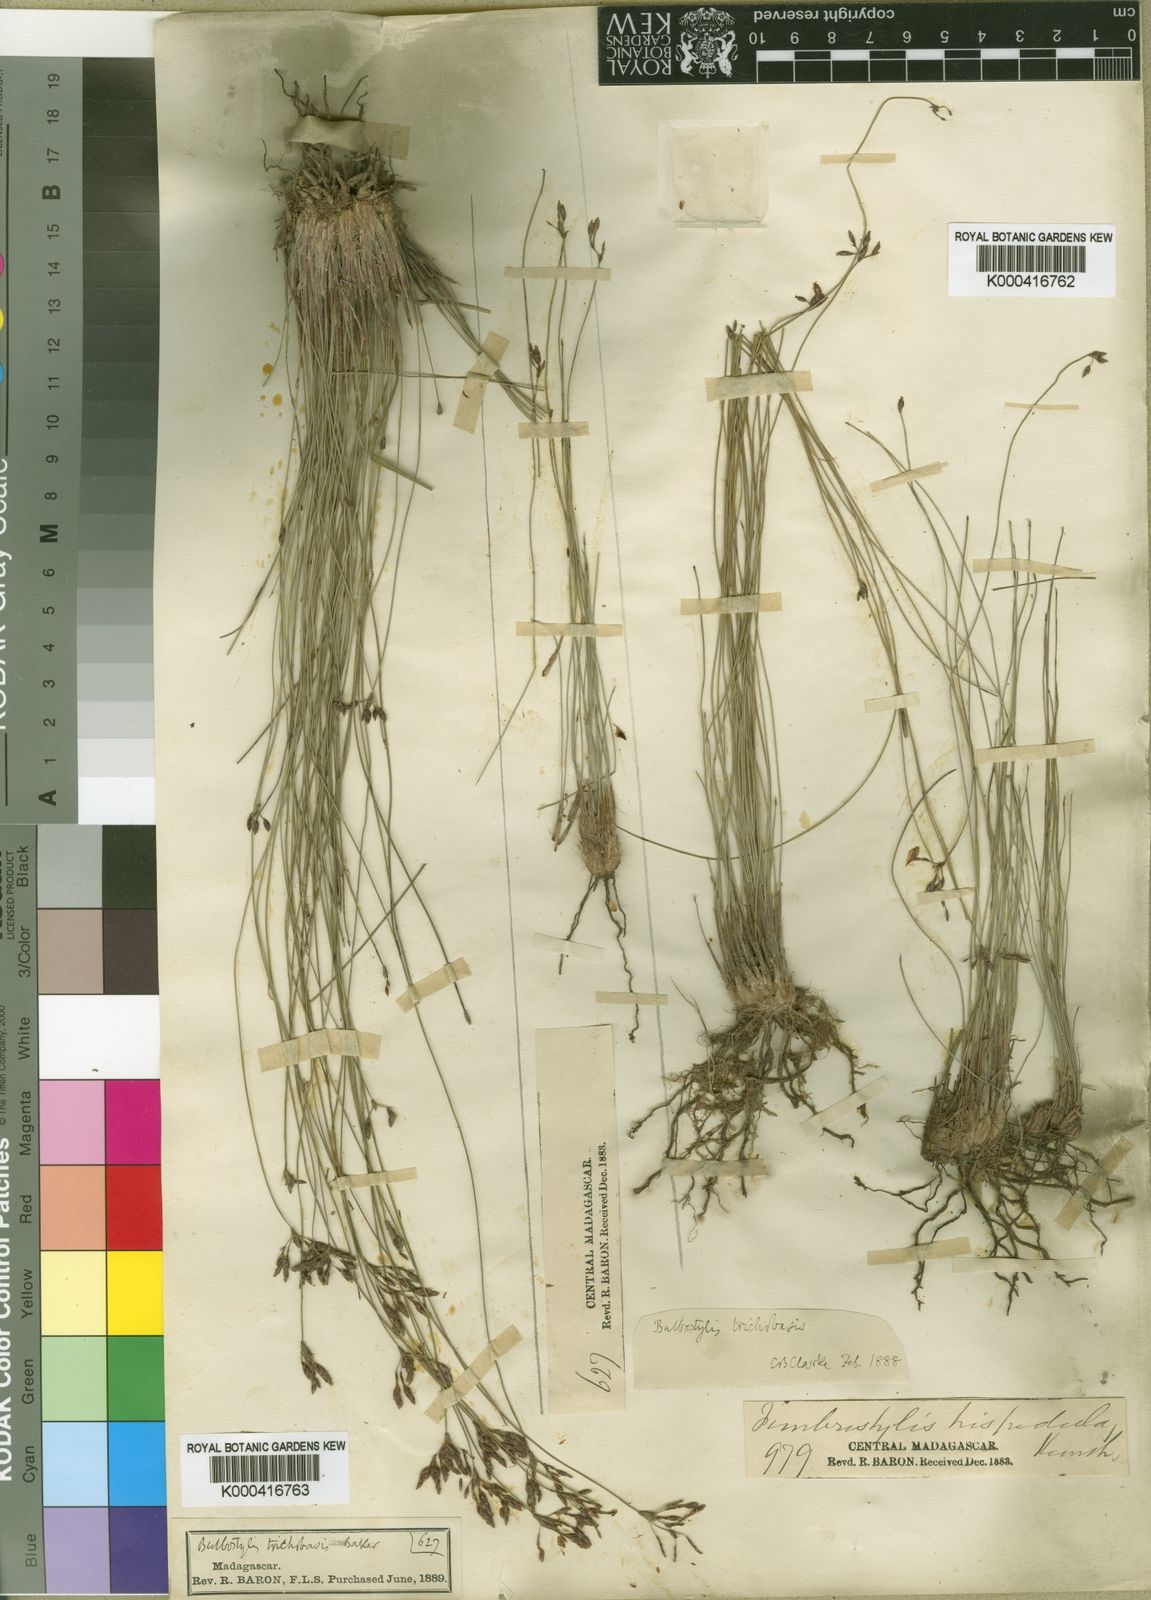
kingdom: Plantae
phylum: Tracheophyta
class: Liliopsida
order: Poales
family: Cyperaceae
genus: Bulbostylis
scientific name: Bulbostylis trichobasis
